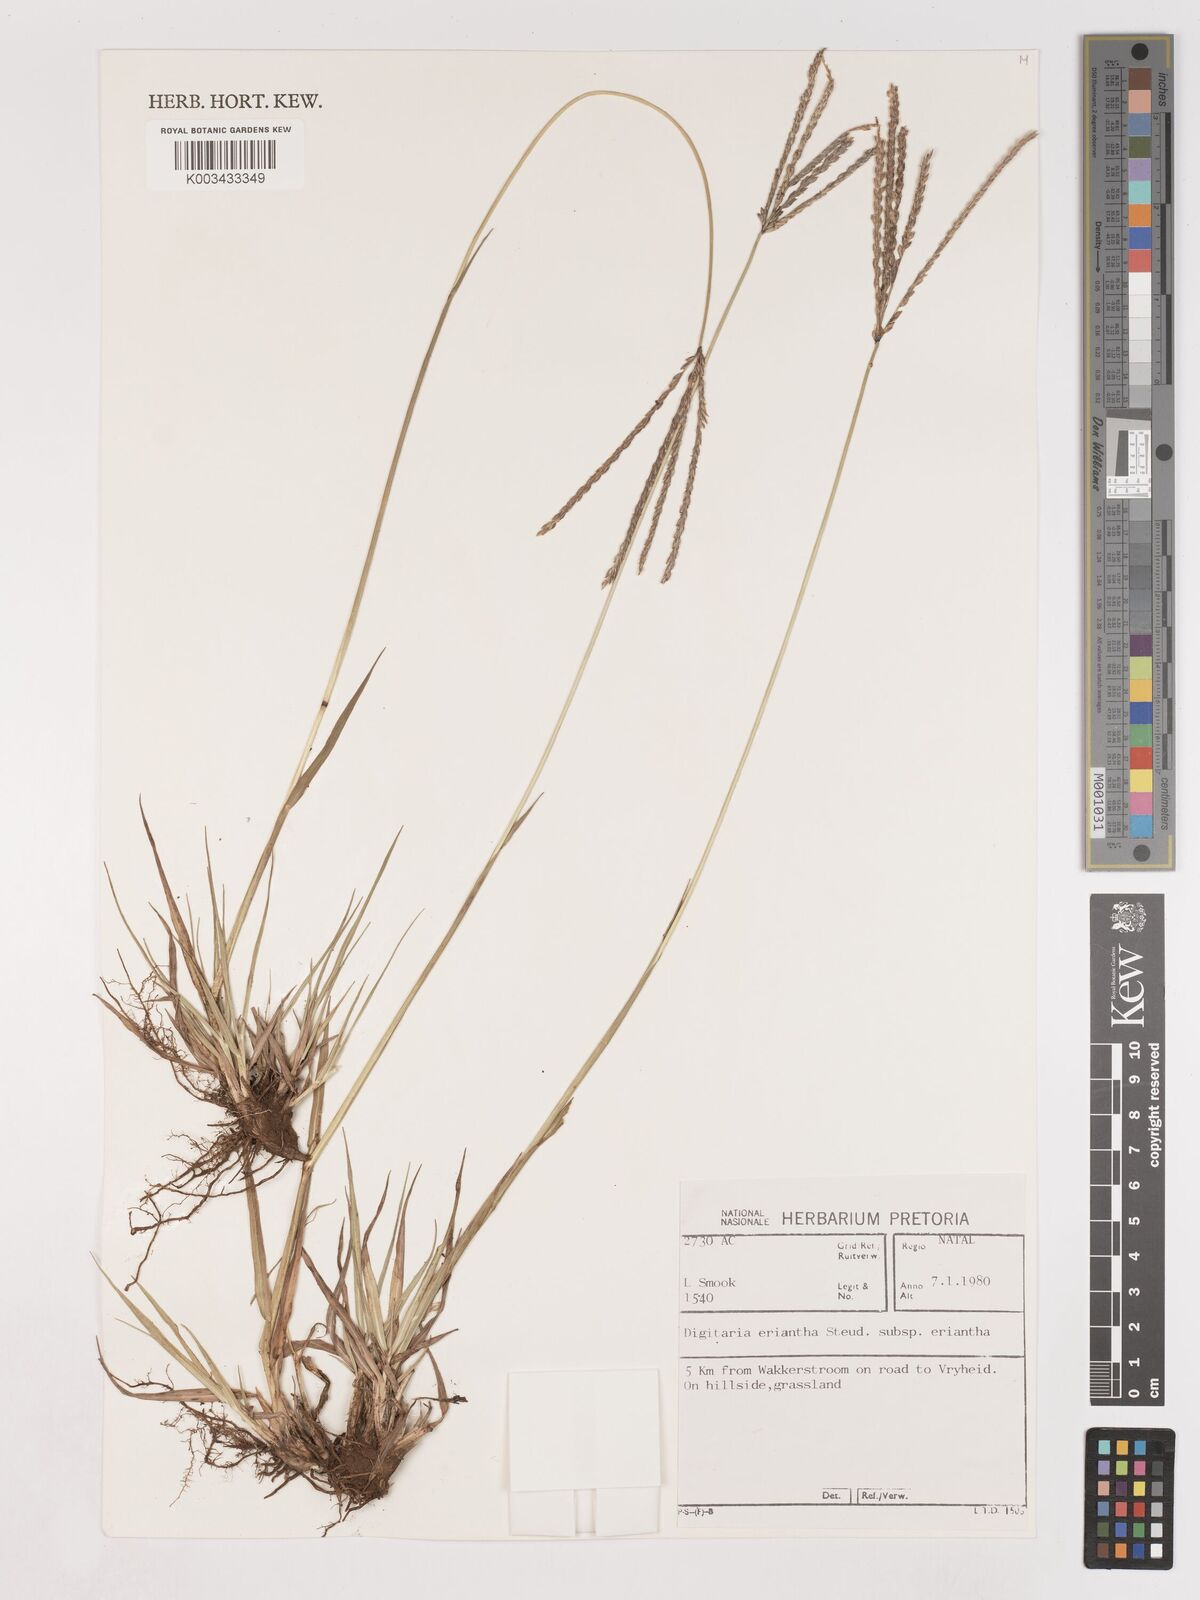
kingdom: Plantae
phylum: Tracheophyta
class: Liliopsida
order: Poales
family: Poaceae
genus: Digitaria
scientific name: Digitaria eriantha
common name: Digitgrass
